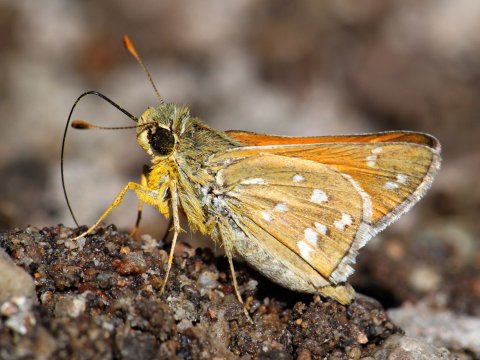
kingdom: Animalia
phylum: Arthropoda
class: Insecta
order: Lepidoptera
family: Hesperiidae
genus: Hesperia
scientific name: Hesperia pahaska
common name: Pahaska Skipper
